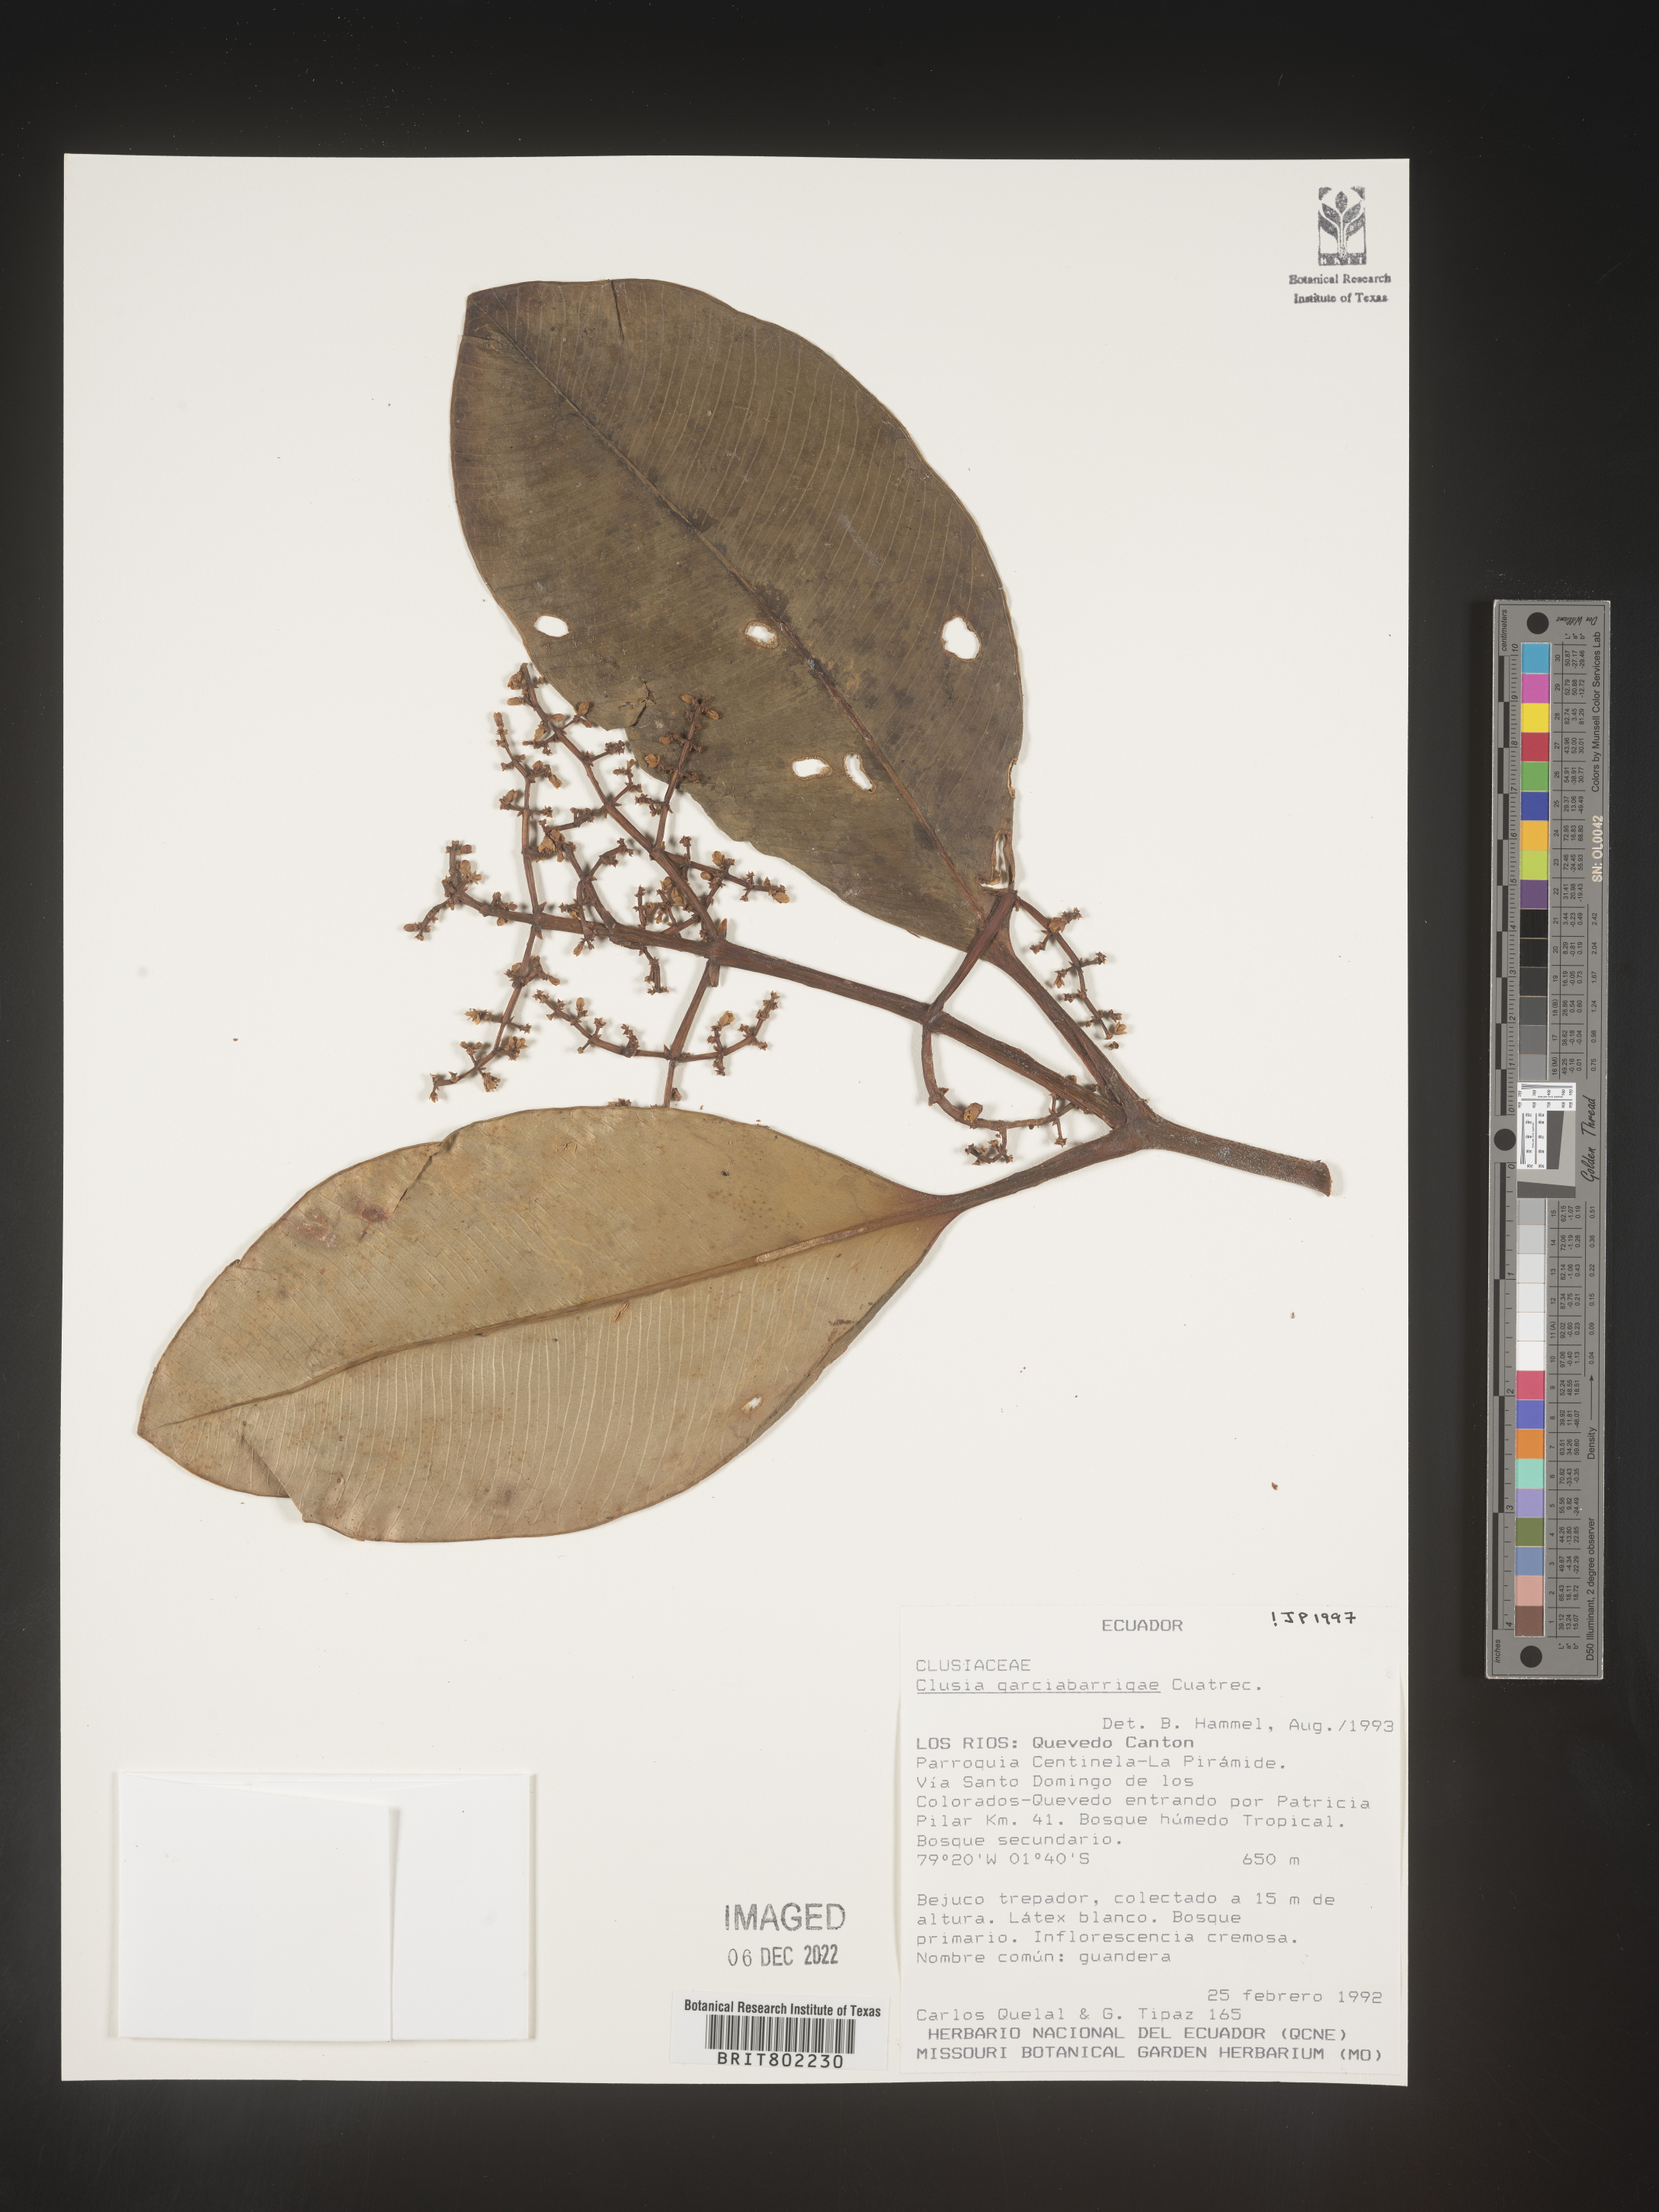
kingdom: Plantae
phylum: Tracheophyta
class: Magnoliopsida
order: Malpighiales
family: Clusiaceae
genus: Clusia
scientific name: Clusia garcibarrigae
